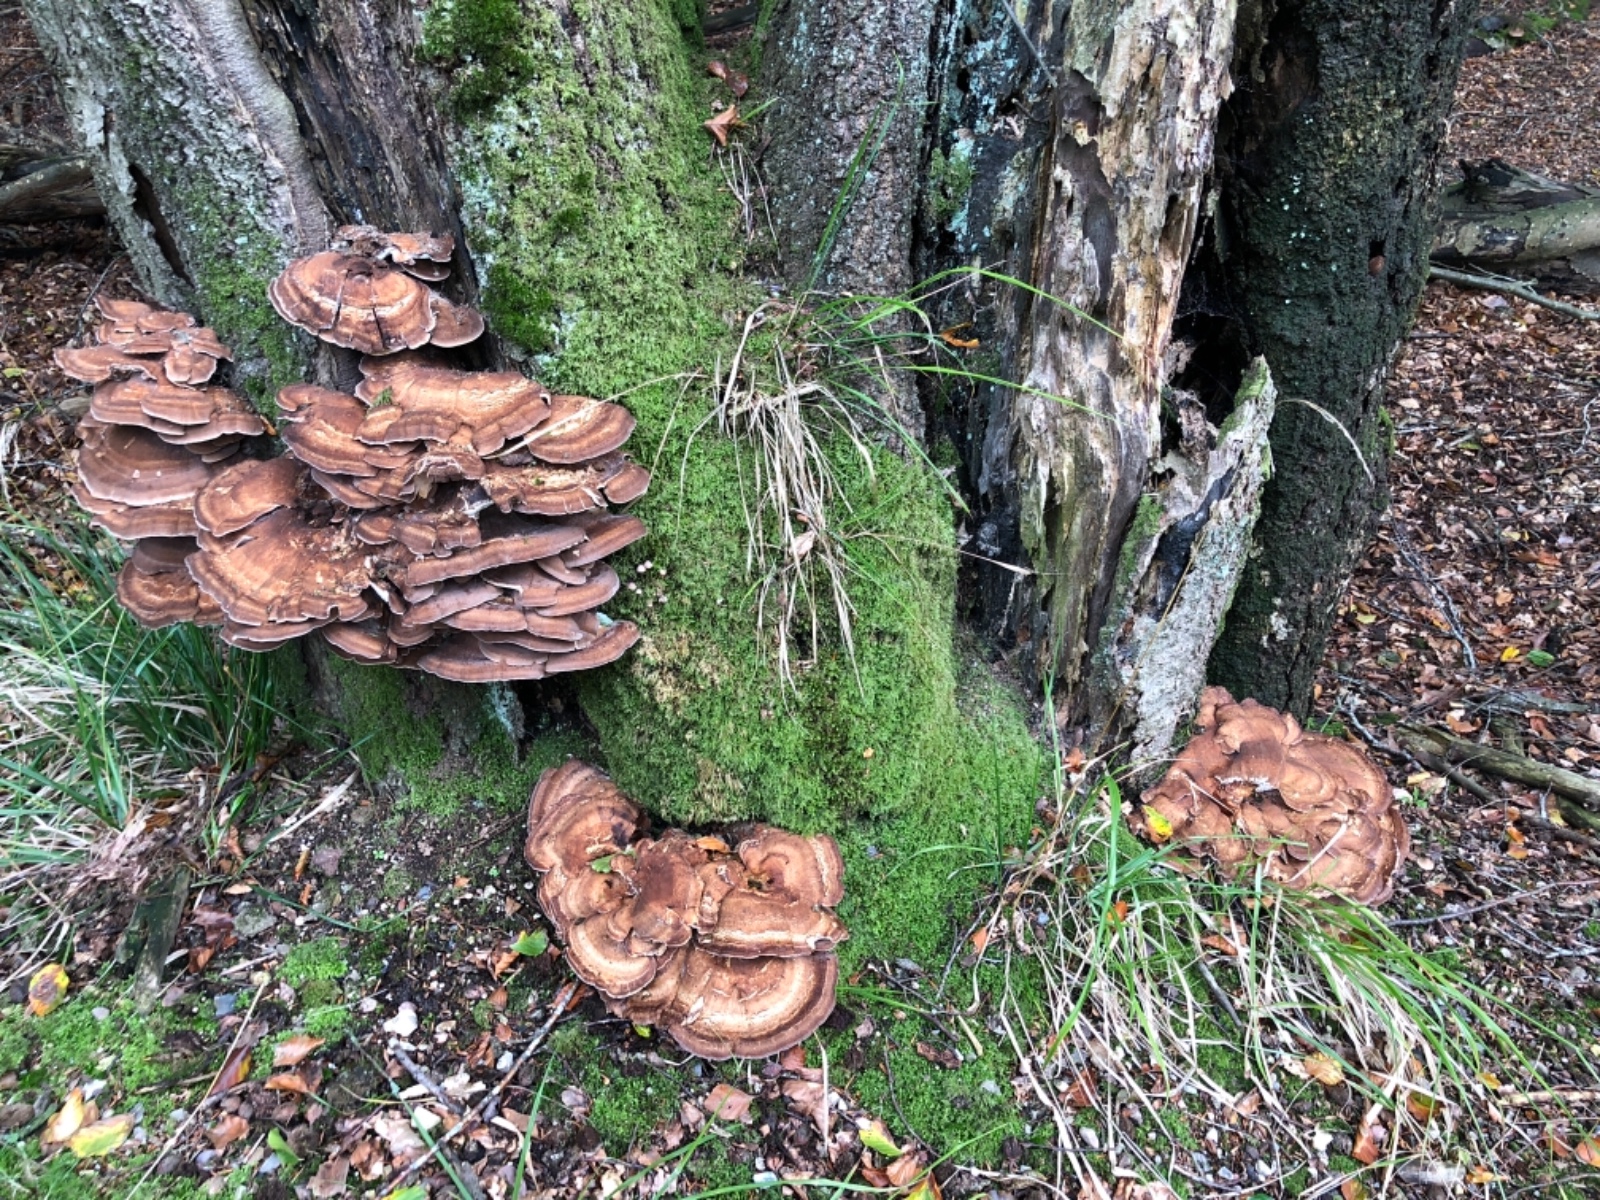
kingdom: Fungi
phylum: Basidiomycota
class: Agaricomycetes
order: Polyporales
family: Meripilaceae
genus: Meripilus
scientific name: Meripilus giganteus
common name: kæmpeporesvamp
